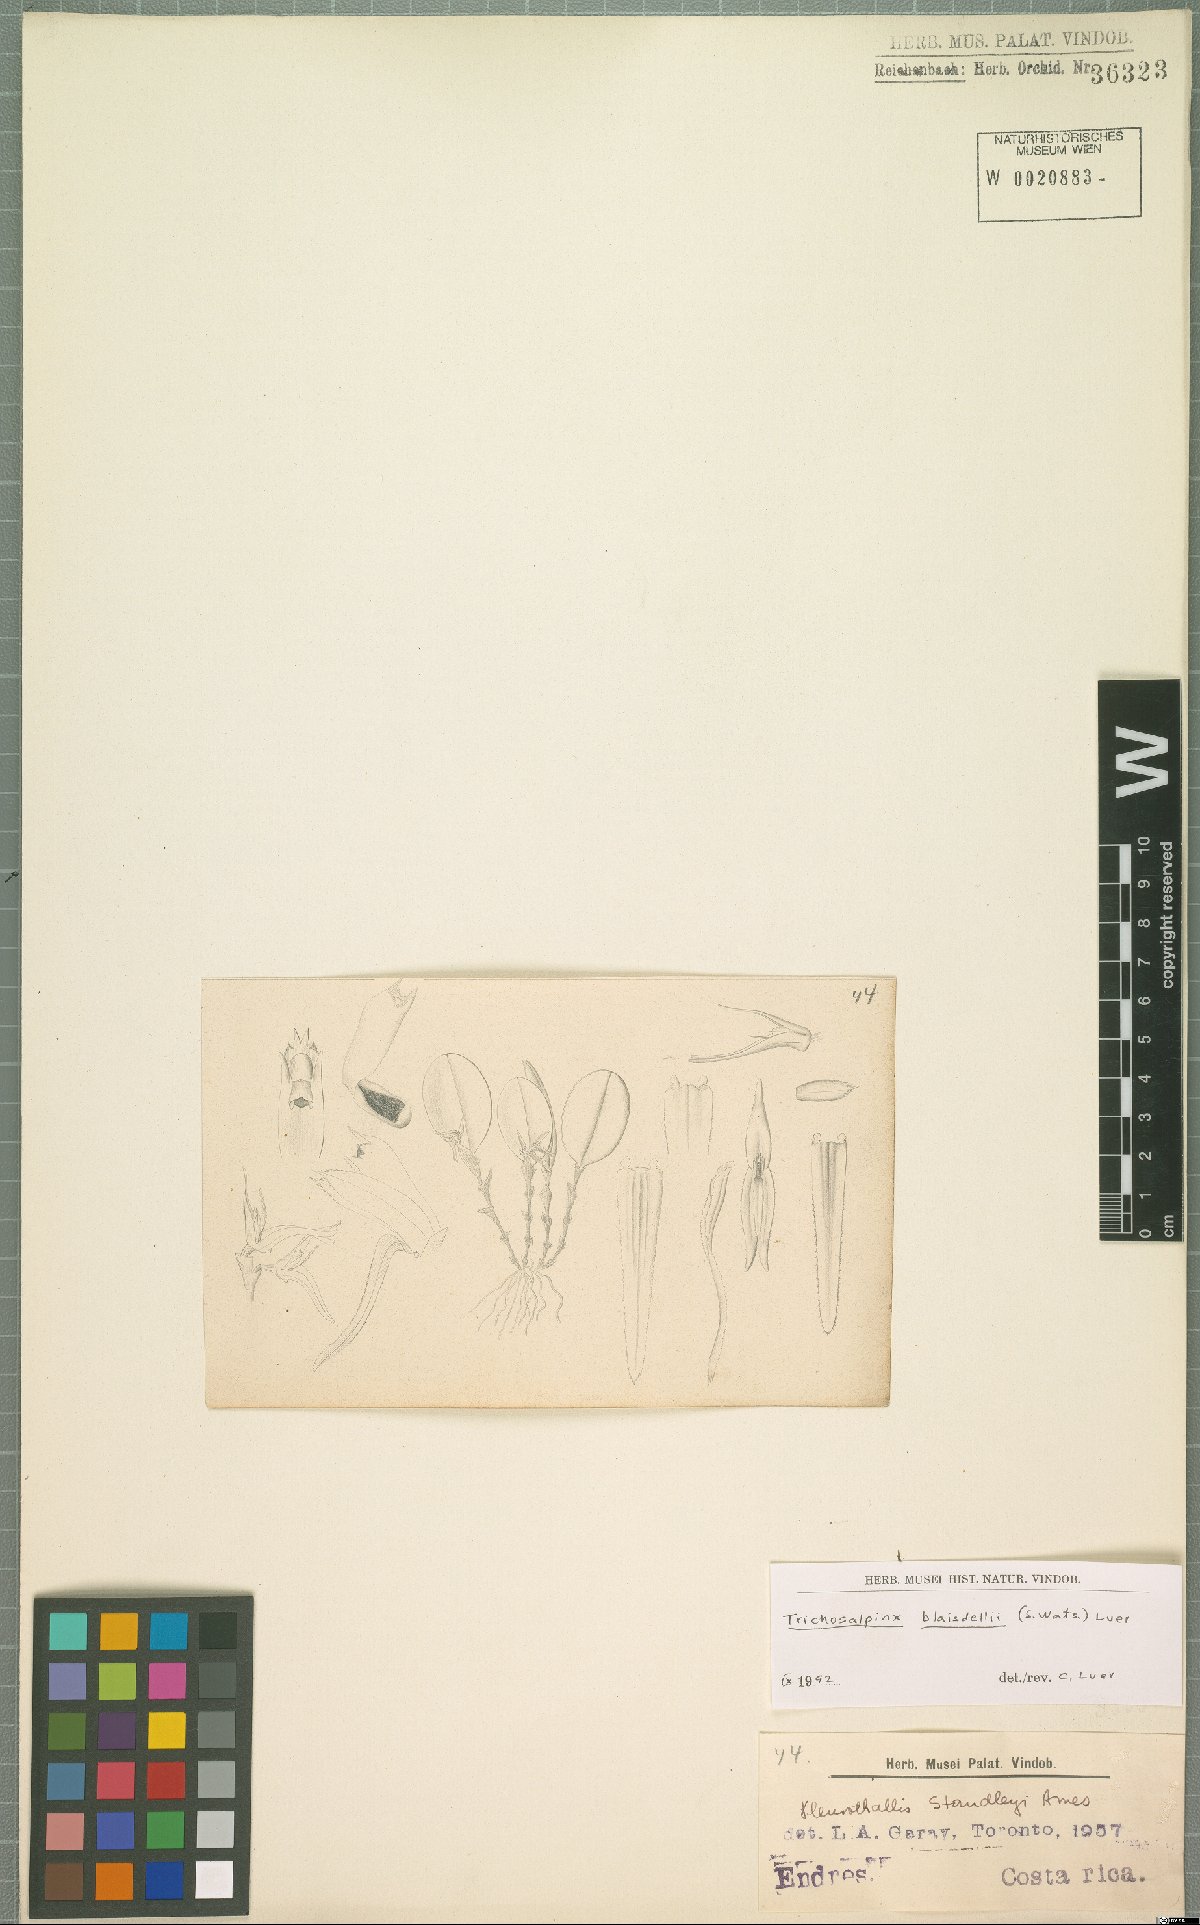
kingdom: Plantae
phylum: Tracheophyta
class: Liliopsida
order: Asparagales
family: Orchidaceae
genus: Trichosalpinx
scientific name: Trichosalpinx blaisdellii
